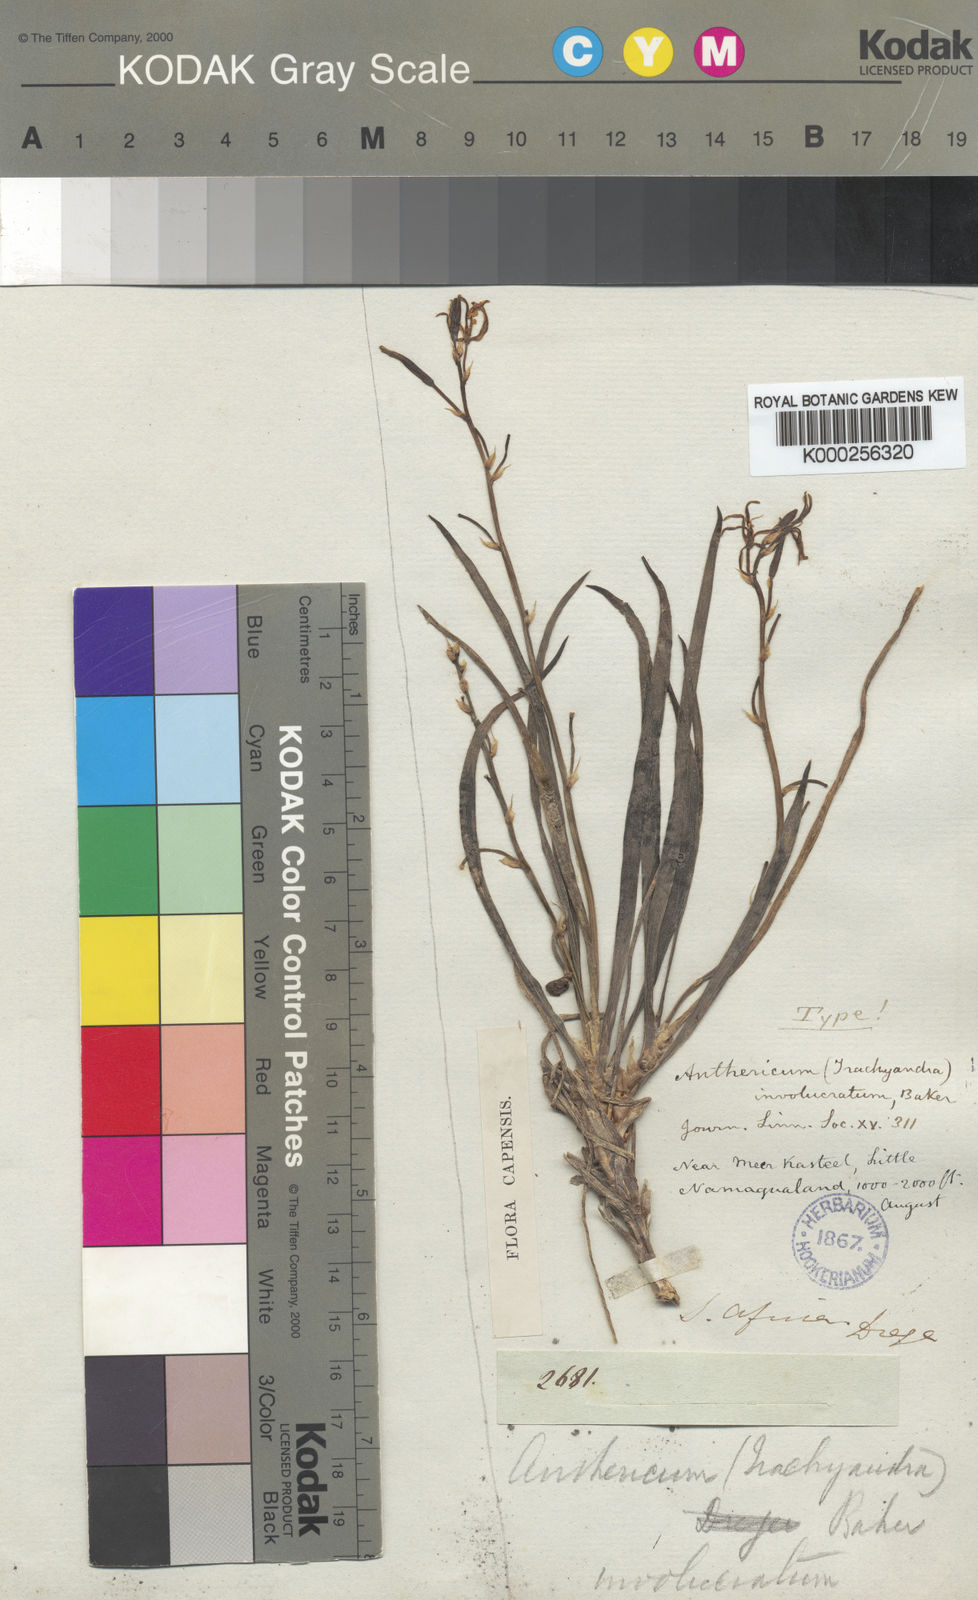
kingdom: Plantae
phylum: Tracheophyta
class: Liliopsida
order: Asparagales
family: Asphodelaceae
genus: Trachyandra
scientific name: Trachyandra involucrata
